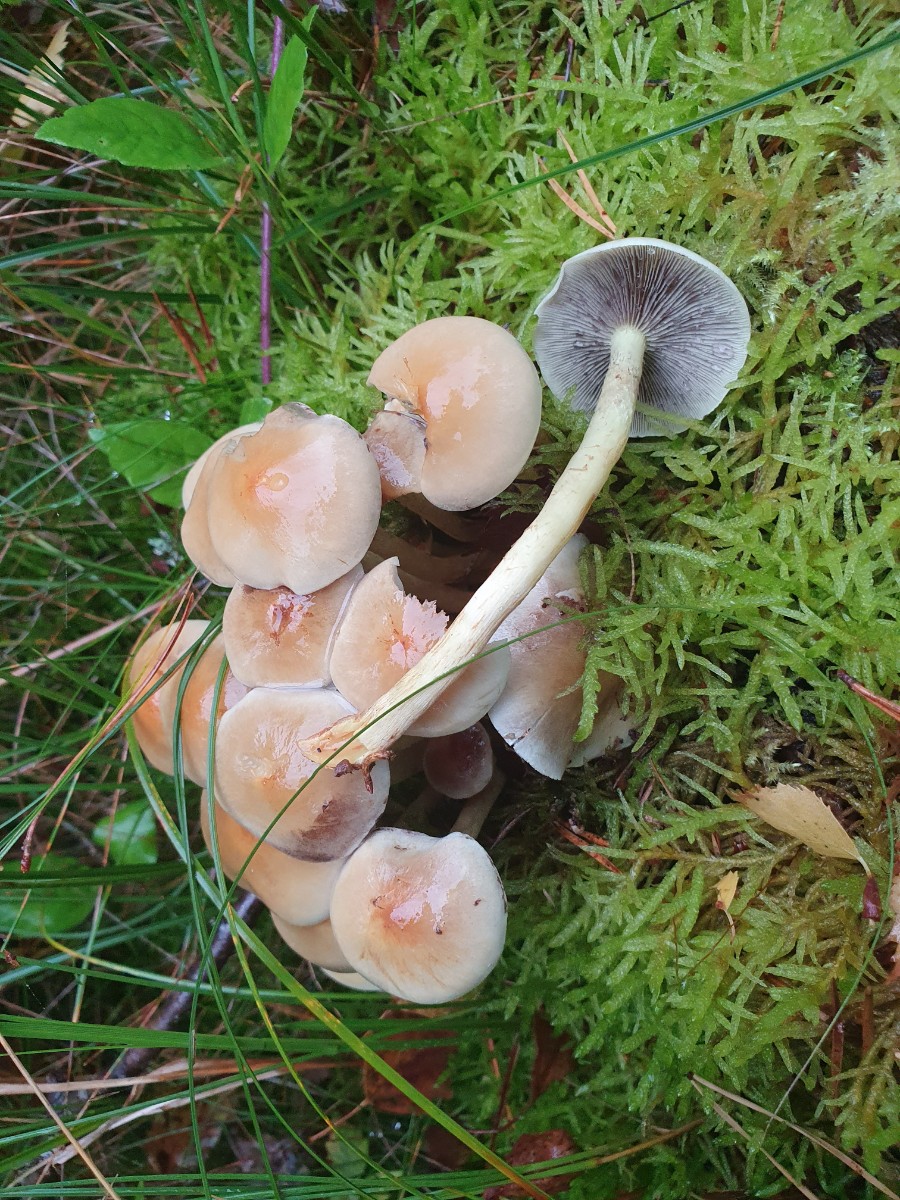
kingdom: Fungi
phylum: Basidiomycota
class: Agaricomycetes
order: Agaricales
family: Strophariaceae
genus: Hypholoma
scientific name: Hypholoma capnoides
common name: gran-svovlhat
